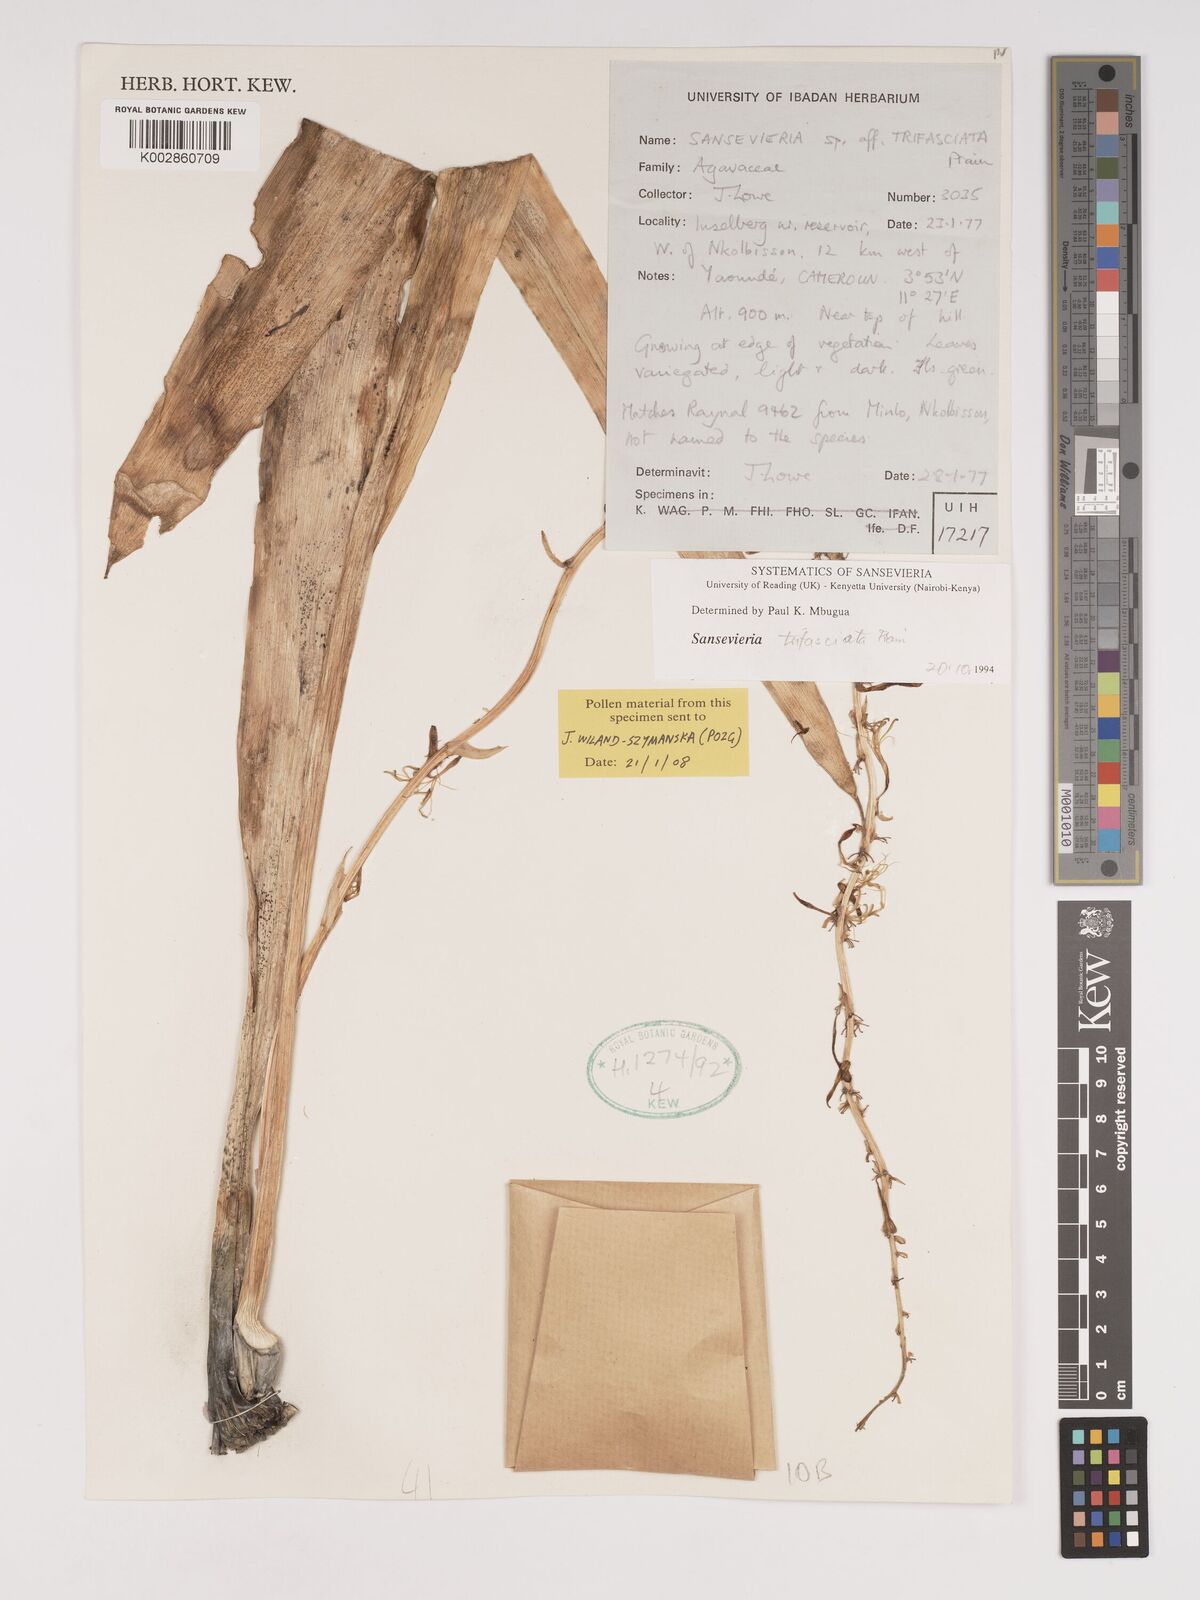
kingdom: Plantae
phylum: Tracheophyta
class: Liliopsida
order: Asparagales
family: Asparagaceae
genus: Dracaena
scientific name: Dracaena trifasciata
